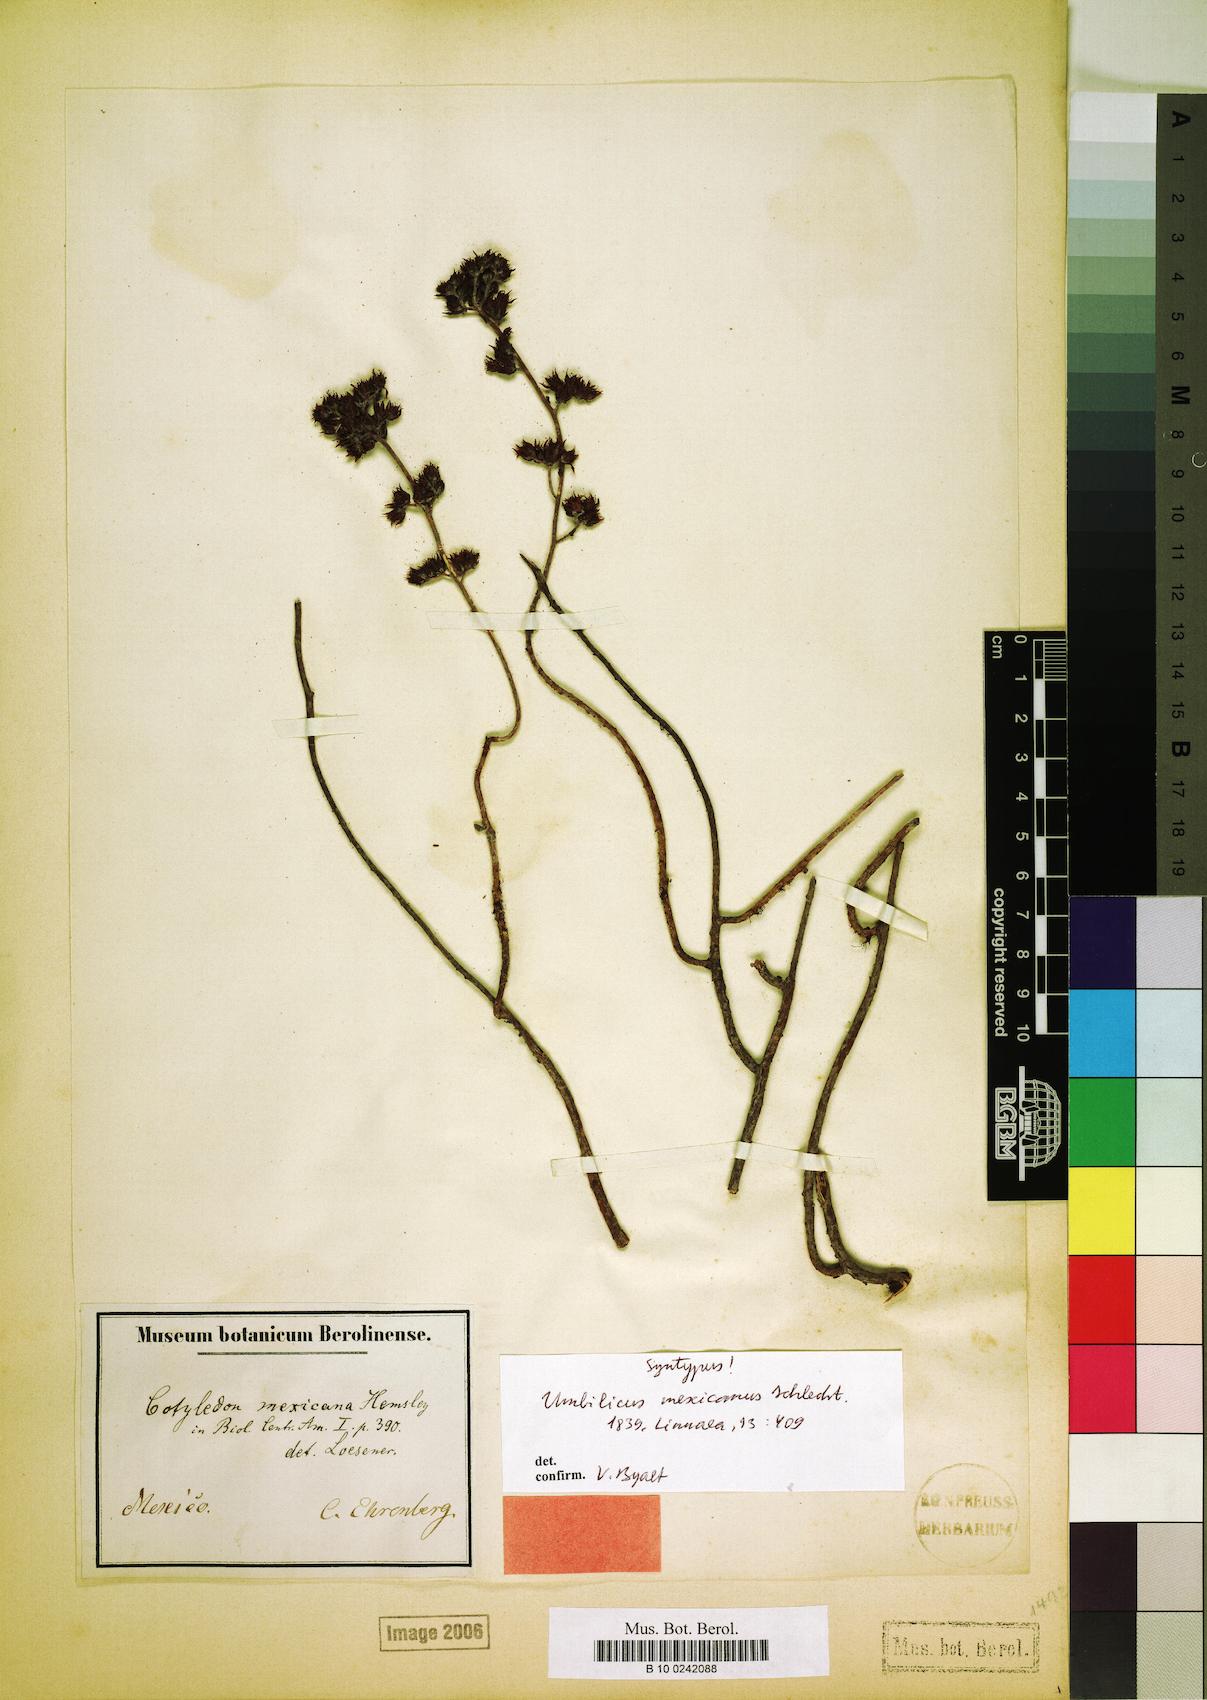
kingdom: Plantae
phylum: Tracheophyta
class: Magnoliopsida
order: Saxifragales
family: Crassulaceae
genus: Sedum
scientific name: Sedum goldmanii
